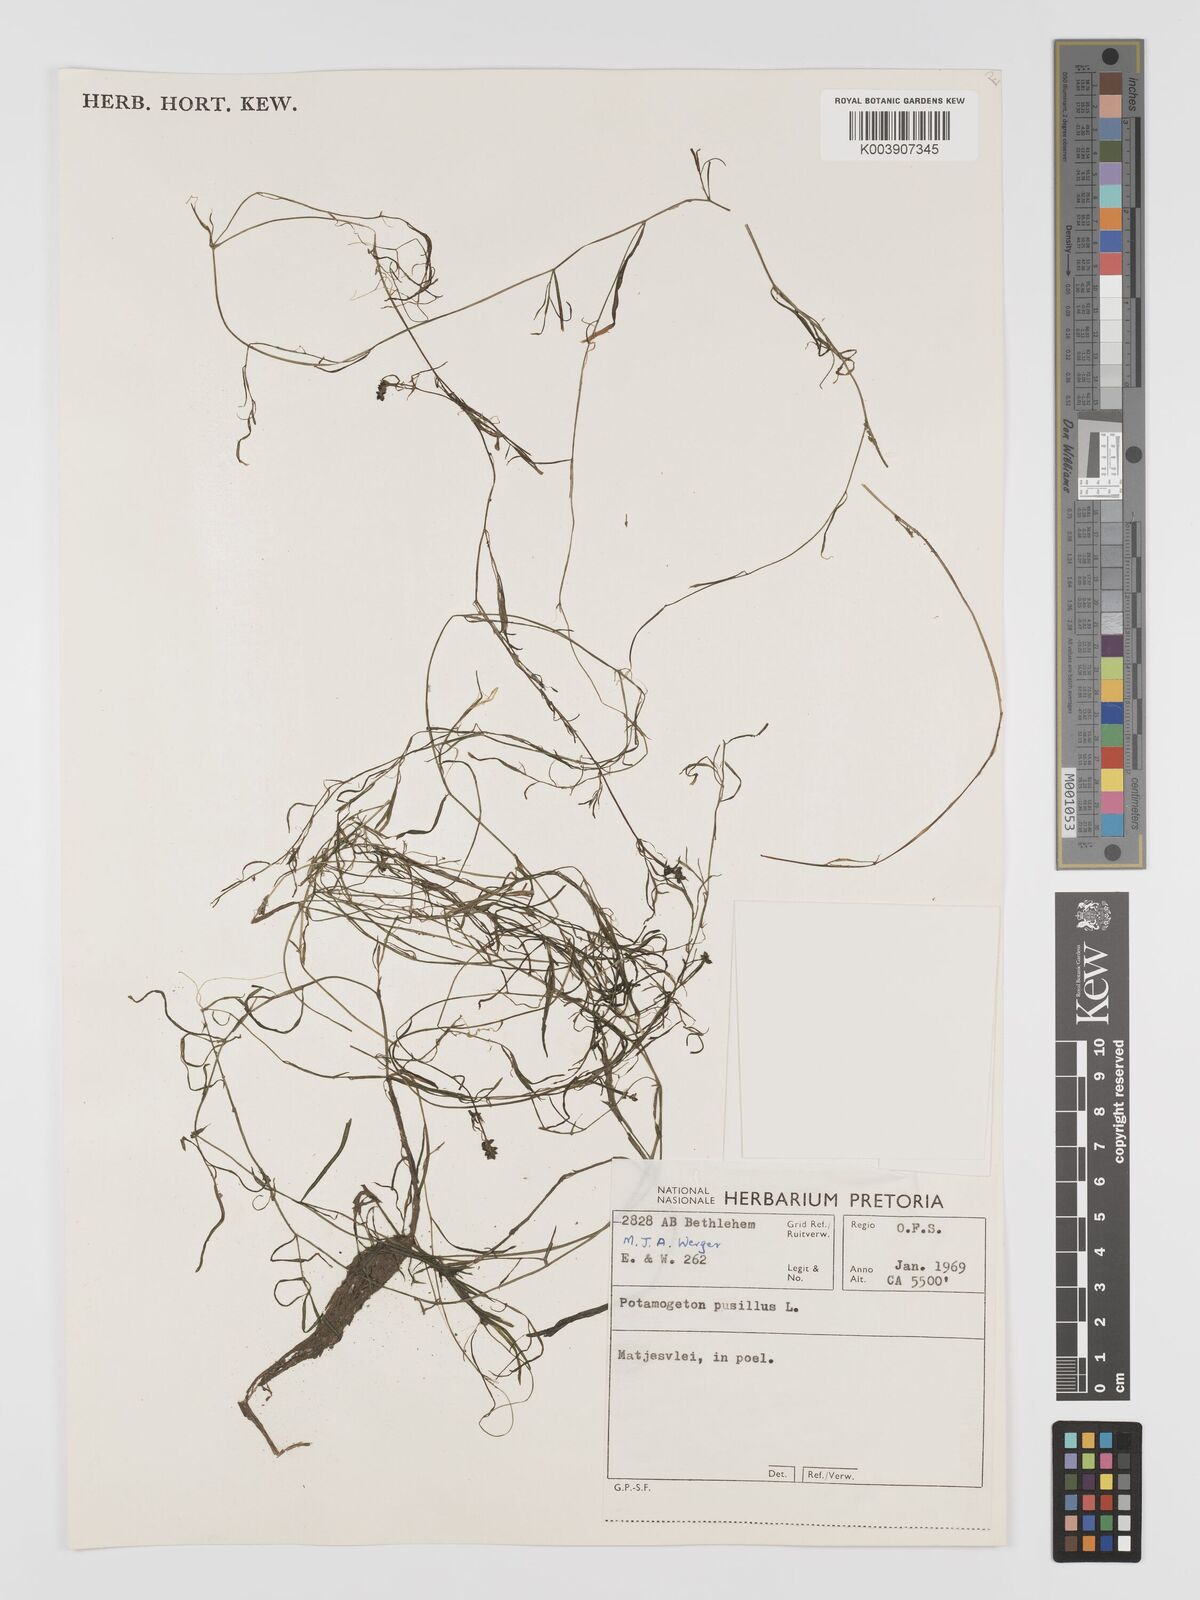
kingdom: Plantae
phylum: Tracheophyta
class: Liliopsida
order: Alismatales
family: Potamogetonaceae
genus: Potamogeton
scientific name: Potamogeton pusillus
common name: Lesser pondweed
